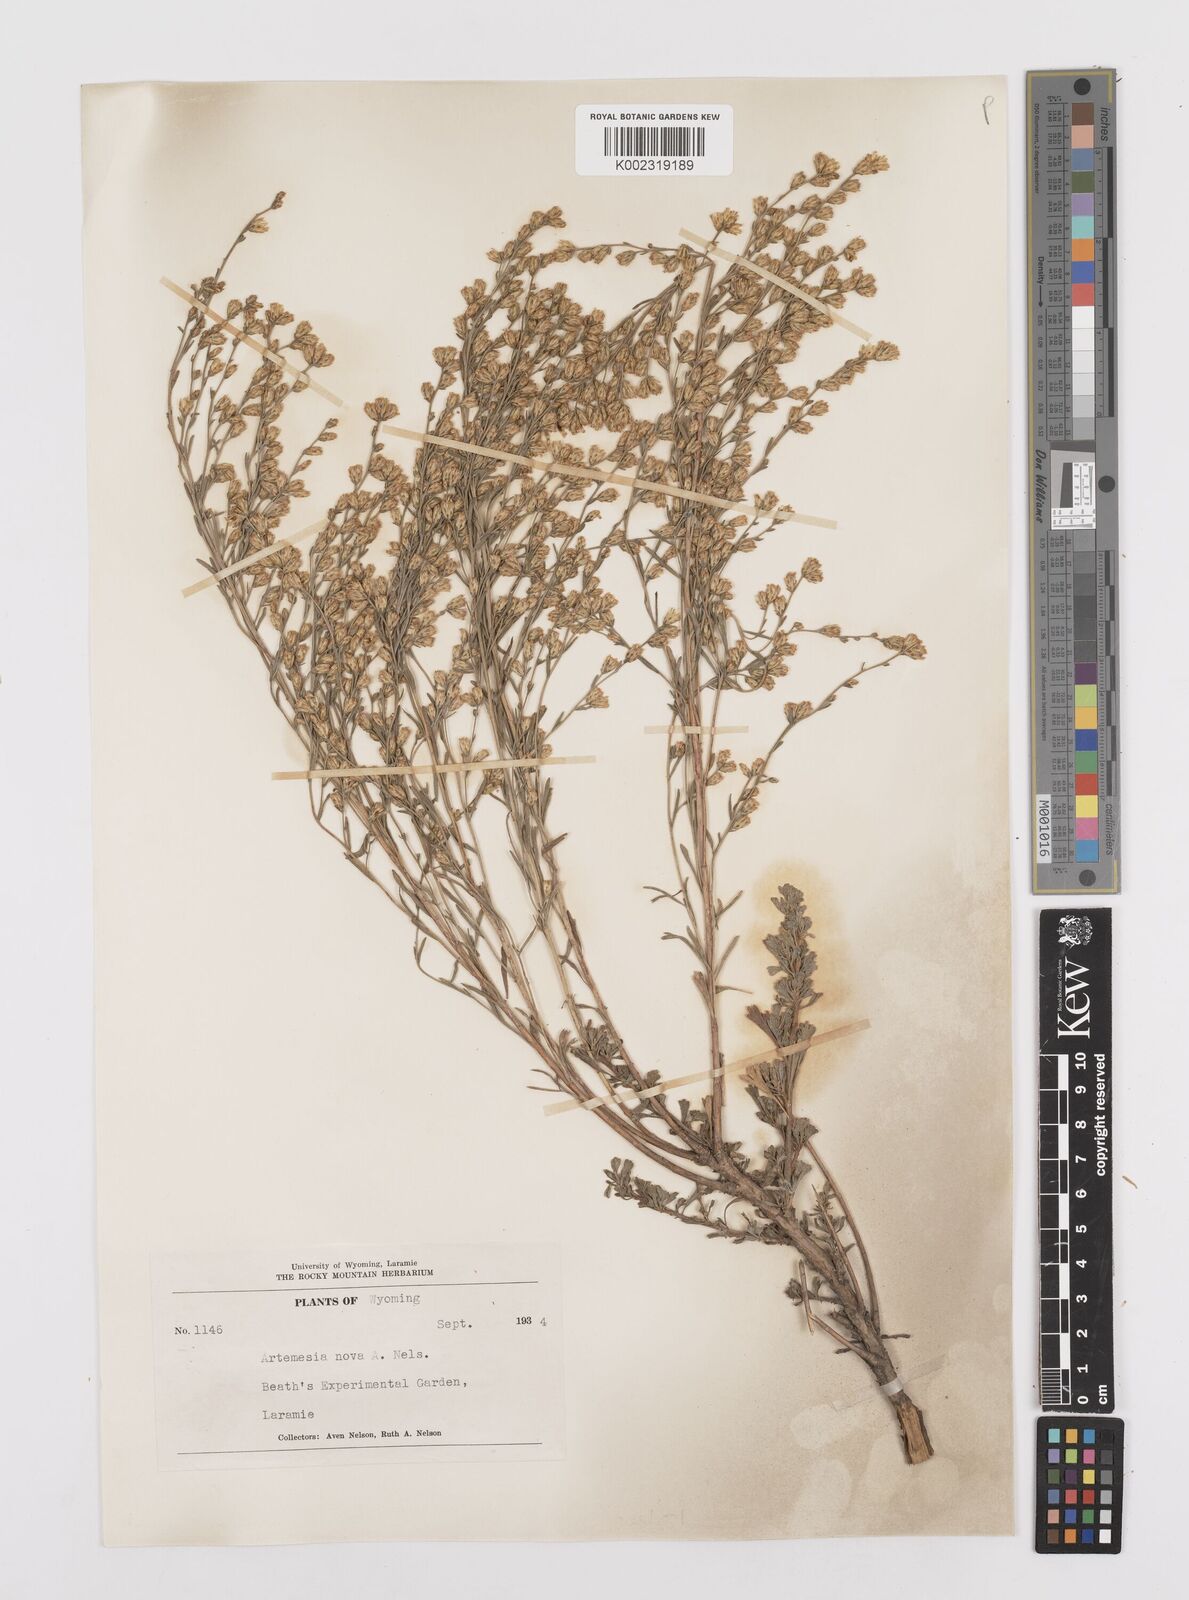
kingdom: Plantae
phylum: Tracheophyta
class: Magnoliopsida
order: Asterales
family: Asteraceae
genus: Artemisia
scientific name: Artemisia nova
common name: Black-sage
